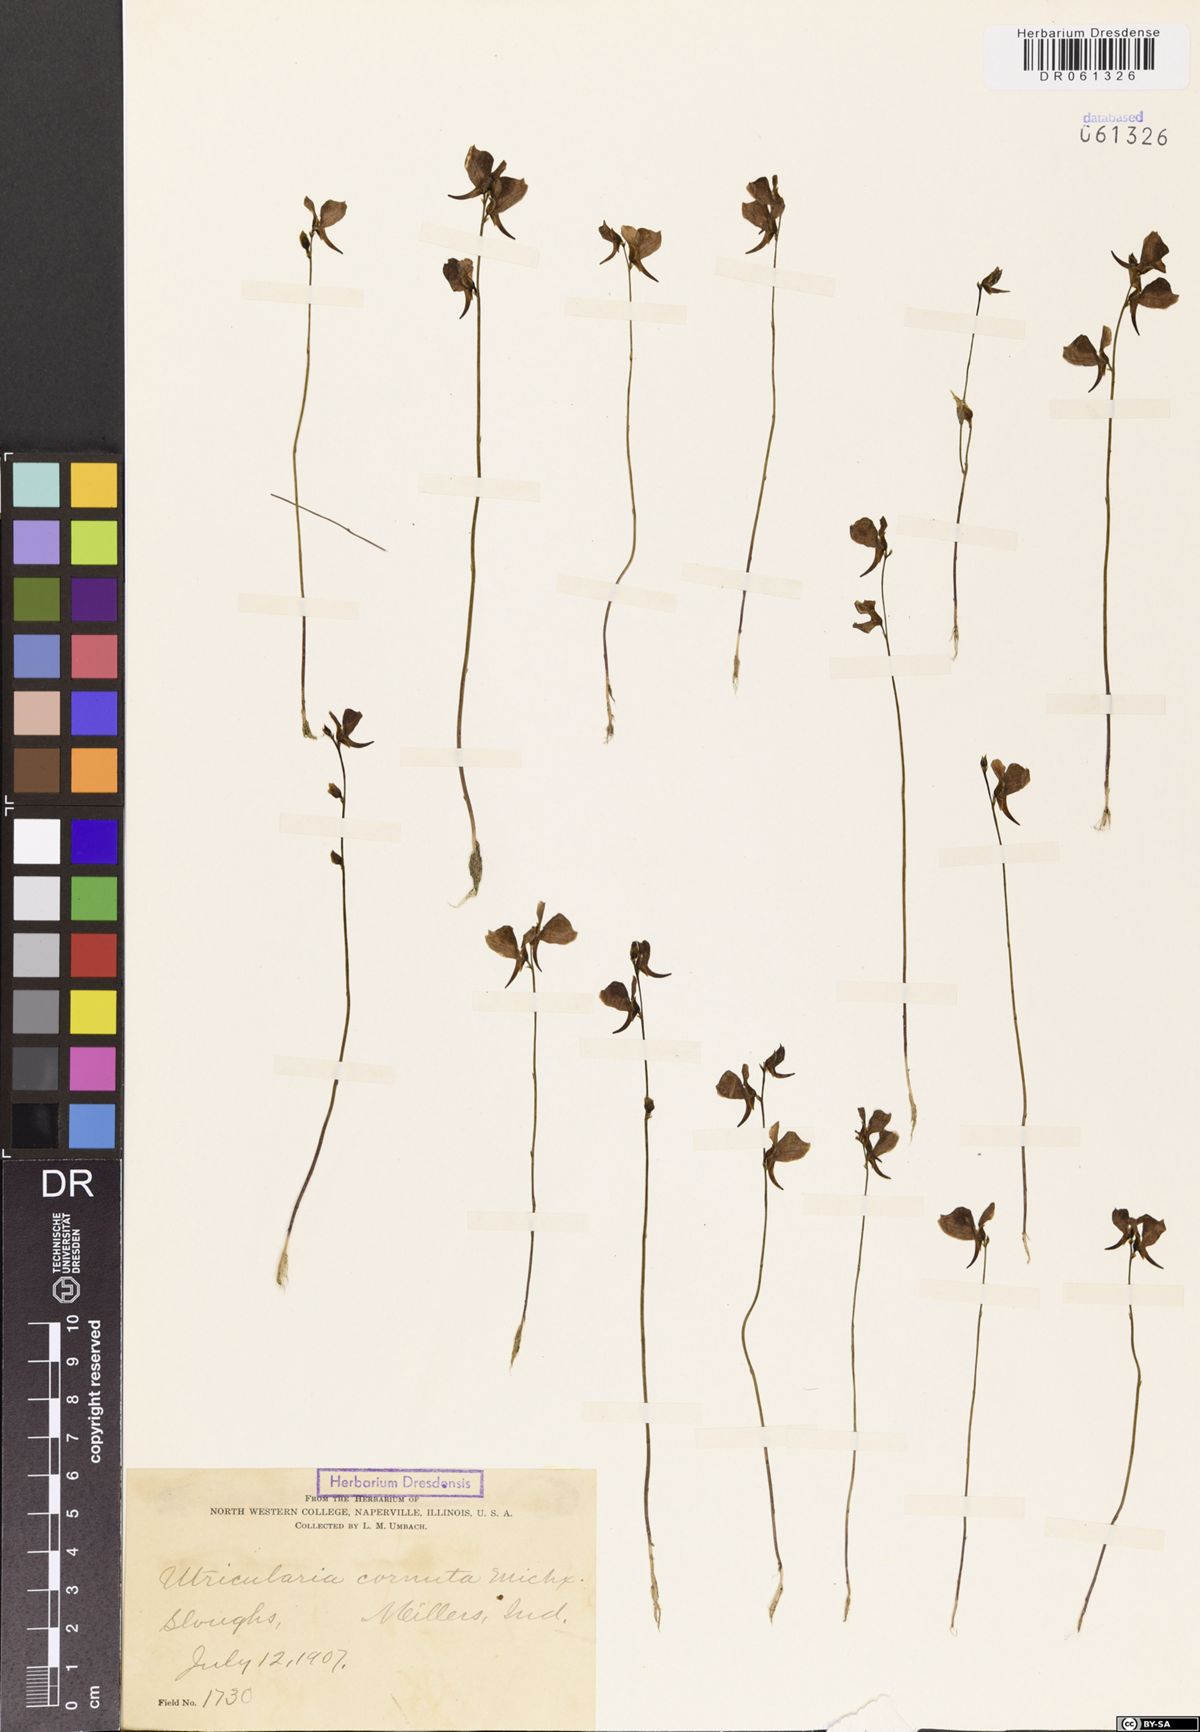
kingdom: Plantae
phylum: Tracheophyta
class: Magnoliopsida
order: Lamiales
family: Lentibulariaceae
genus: Utricularia
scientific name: Utricularia cornuta
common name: Horned bladderwort
